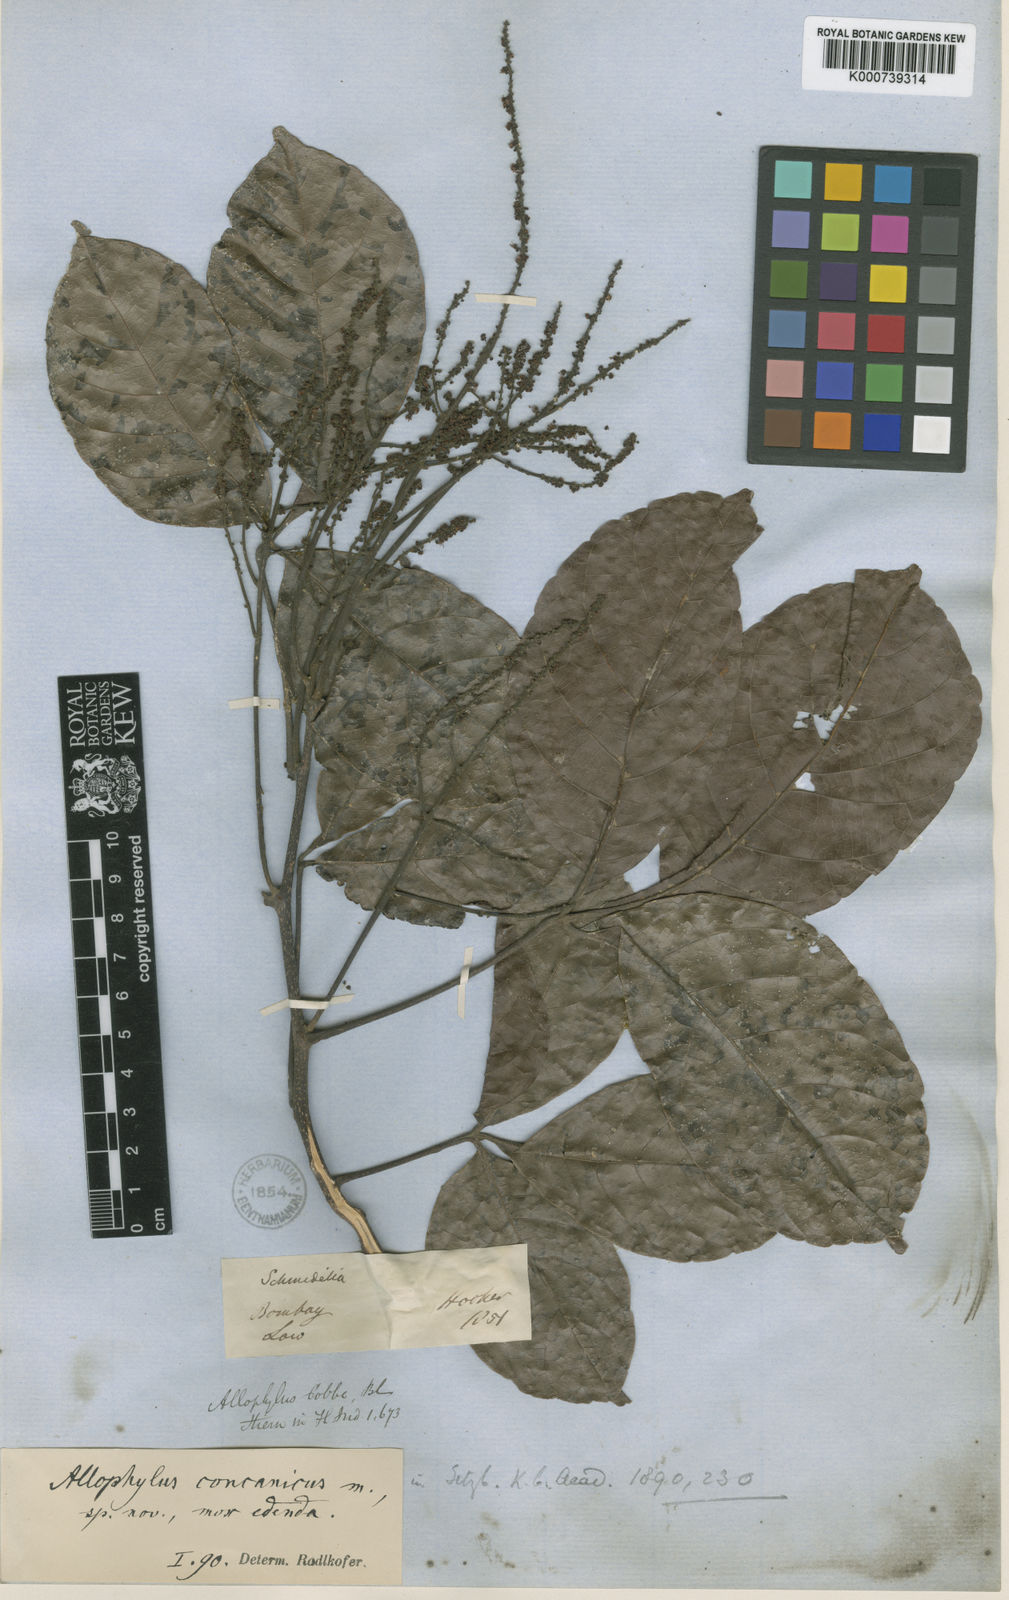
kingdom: Plantae
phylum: Tracheophyta
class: Magnoliopsida
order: Sapindales
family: Sapindaceae
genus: Allophylus
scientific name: Allophylus concanicus
